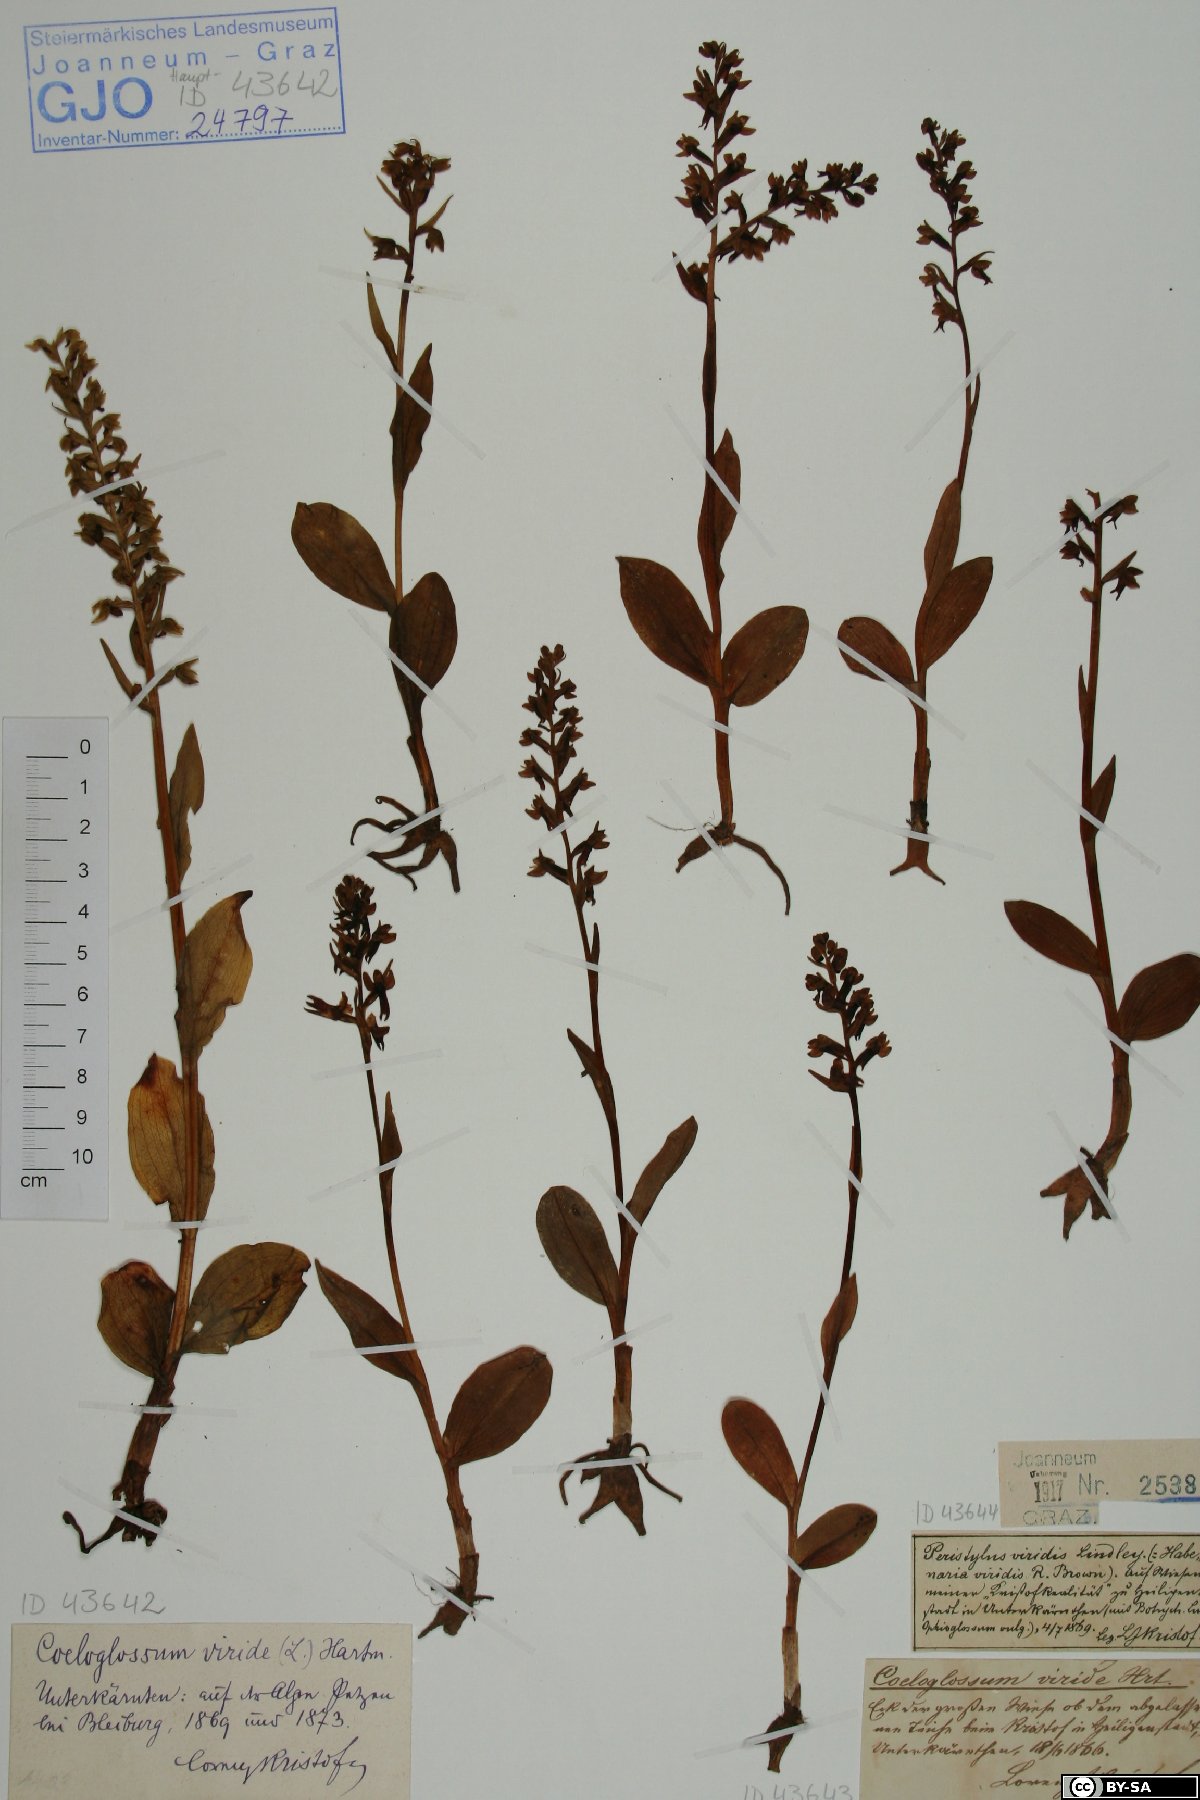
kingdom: Plantae
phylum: Tracheophyta
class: Liliopsida
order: Asparagales
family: Orchidaceae
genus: Dactylorhiza
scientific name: Dactylorhiza viridis
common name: Longbract frog orchid
